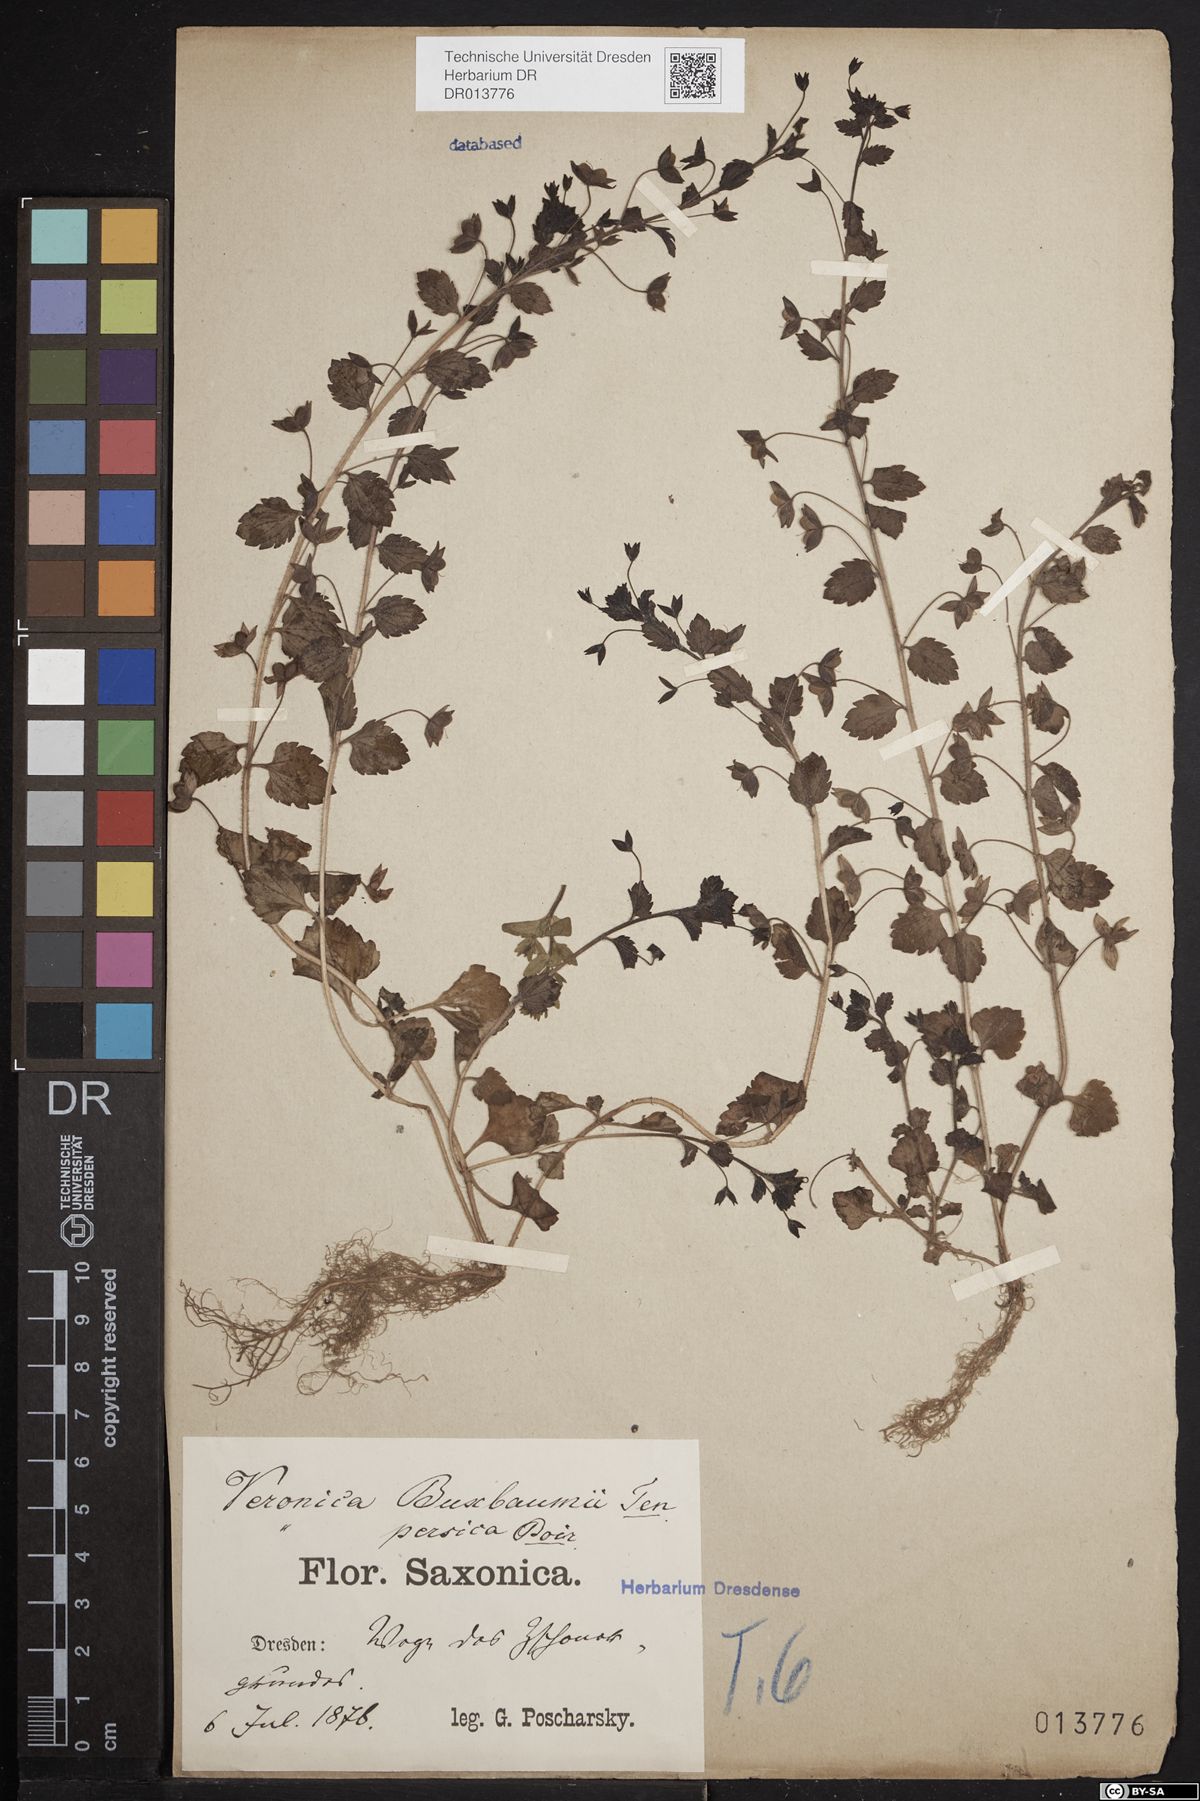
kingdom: Plantae
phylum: Tracheophyta
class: Magnoliopsida
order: Lamiales
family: Plantaginaceae
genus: Veronica
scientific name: Veronica persica
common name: Common field-speedwell
